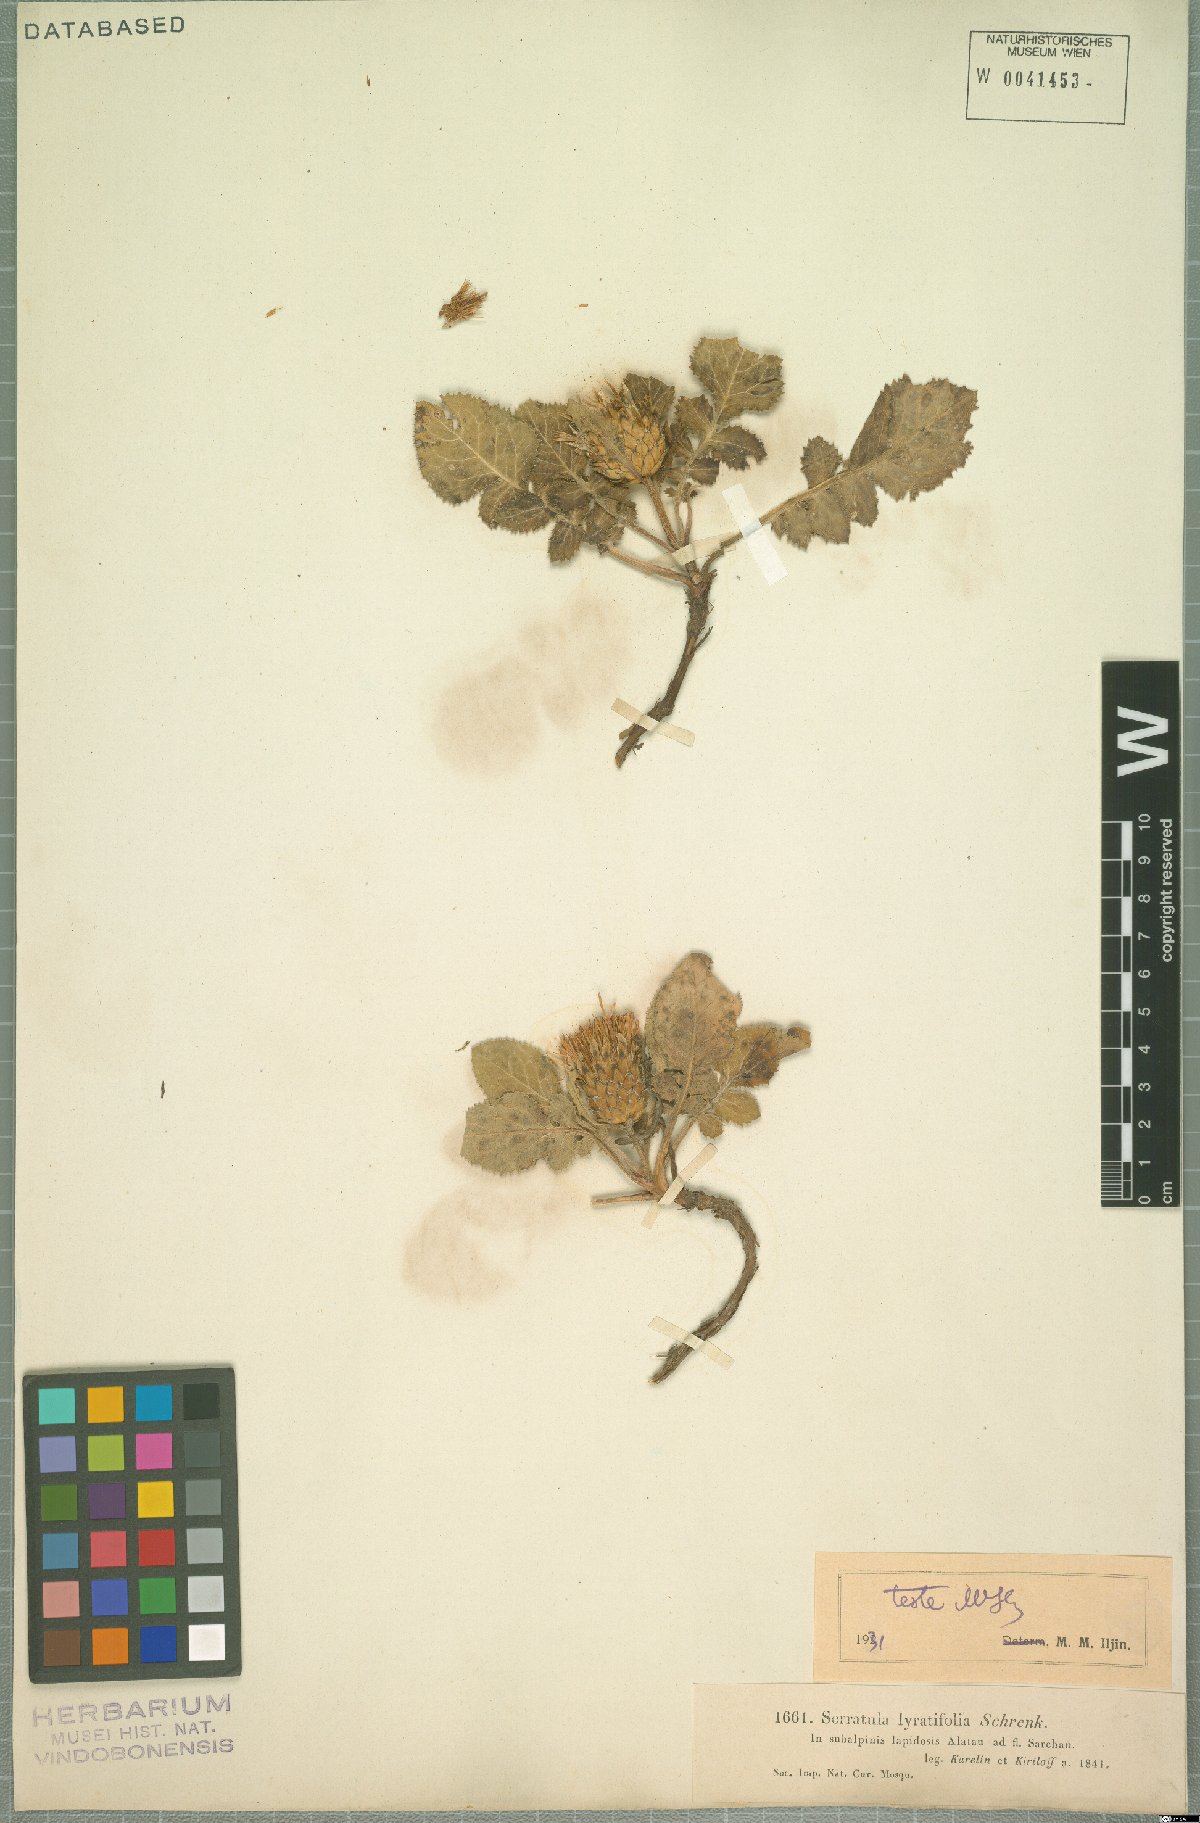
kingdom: Plantae
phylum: Tracheophyta
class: Magnoliopsida
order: Asterales
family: Asteraceae
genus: Klasea
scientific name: Klasea lyratifolia
